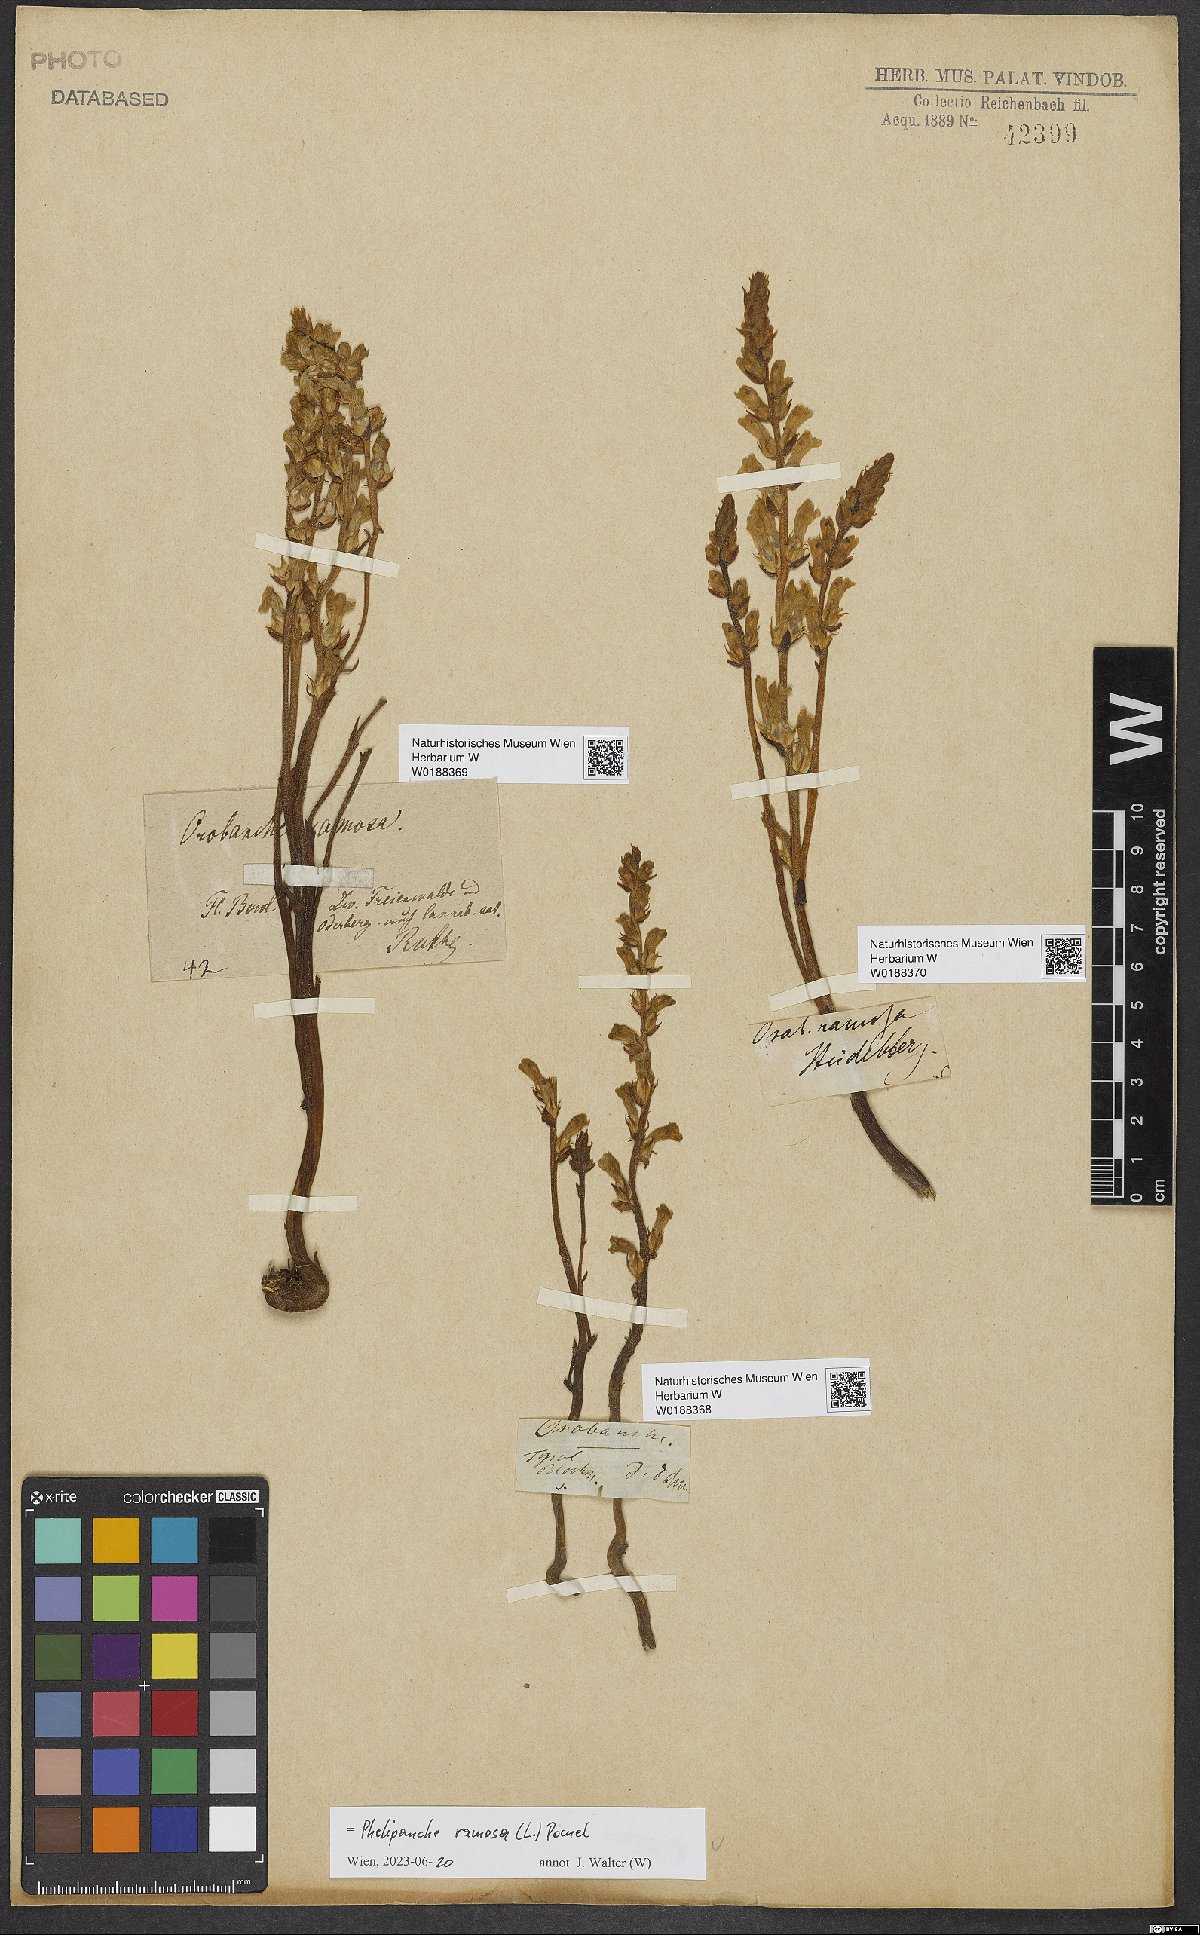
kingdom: Plantae
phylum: Tracheophyta
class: Magnoliopsida
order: Lamiales
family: Orobanchaceae
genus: Phelipanche
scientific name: Phelipanche ramosa
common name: Branched broomrape
